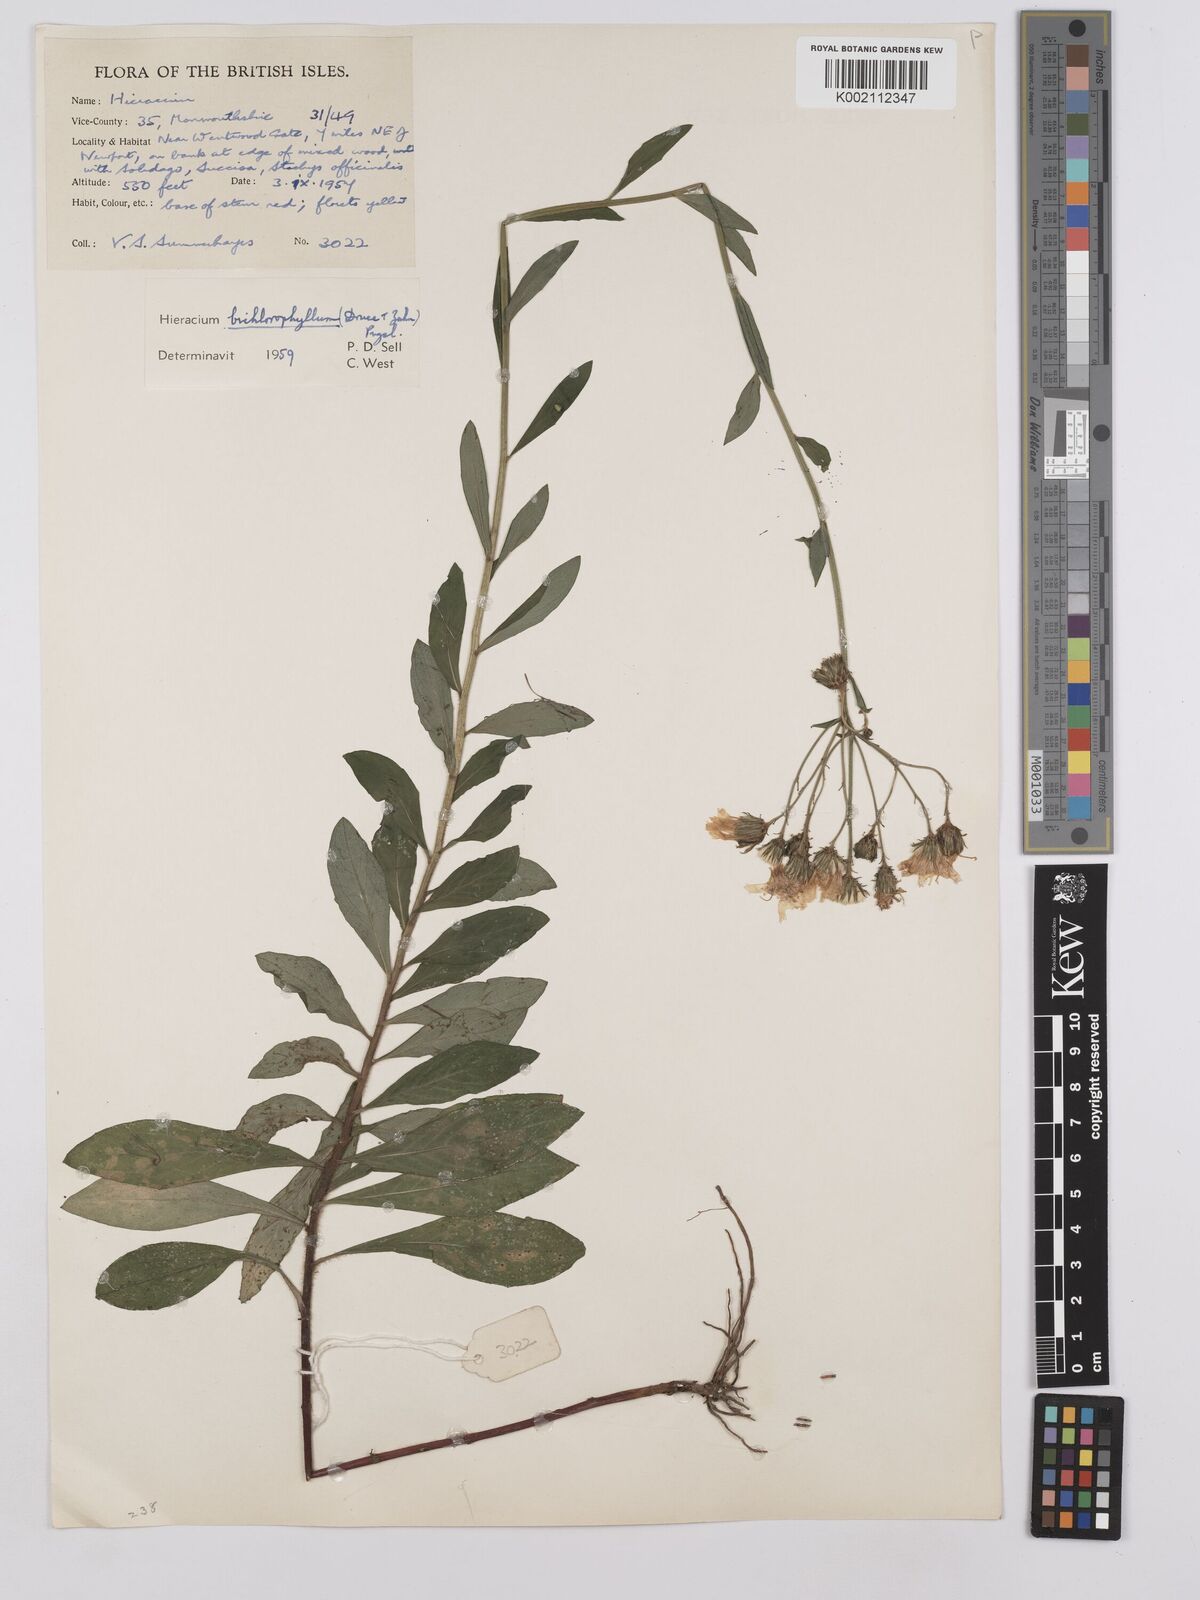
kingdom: Plantae
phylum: Tracheophyta
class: Magnoliopsida
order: Asterales
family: Asteraceae
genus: Hieracium
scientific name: Hieracium umbellatum
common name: Northern hawkweed
